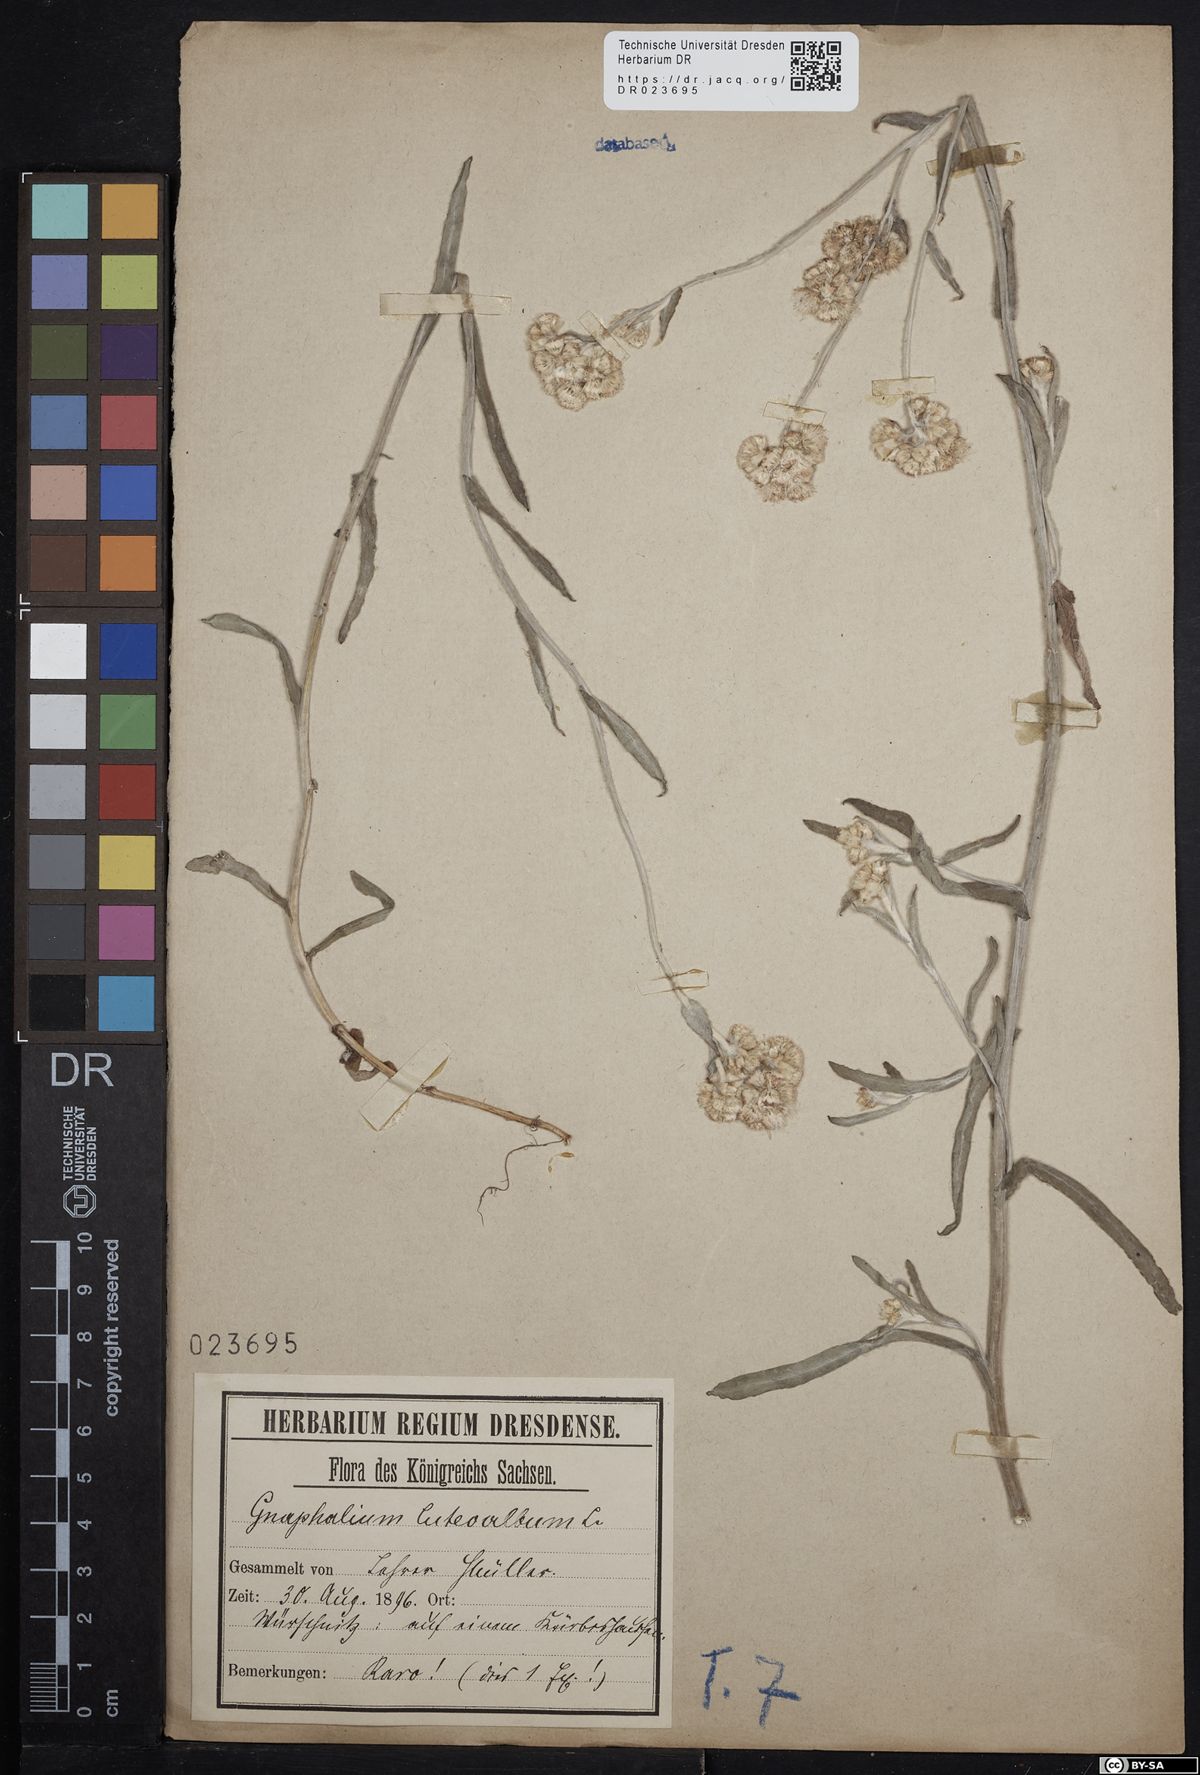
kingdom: Plantae
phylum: Tracheophyta
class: Magnoliopsida
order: Asterales
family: Asteraceae
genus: Helichrysum
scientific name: Helichrysum luteoalbum
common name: Daisy
